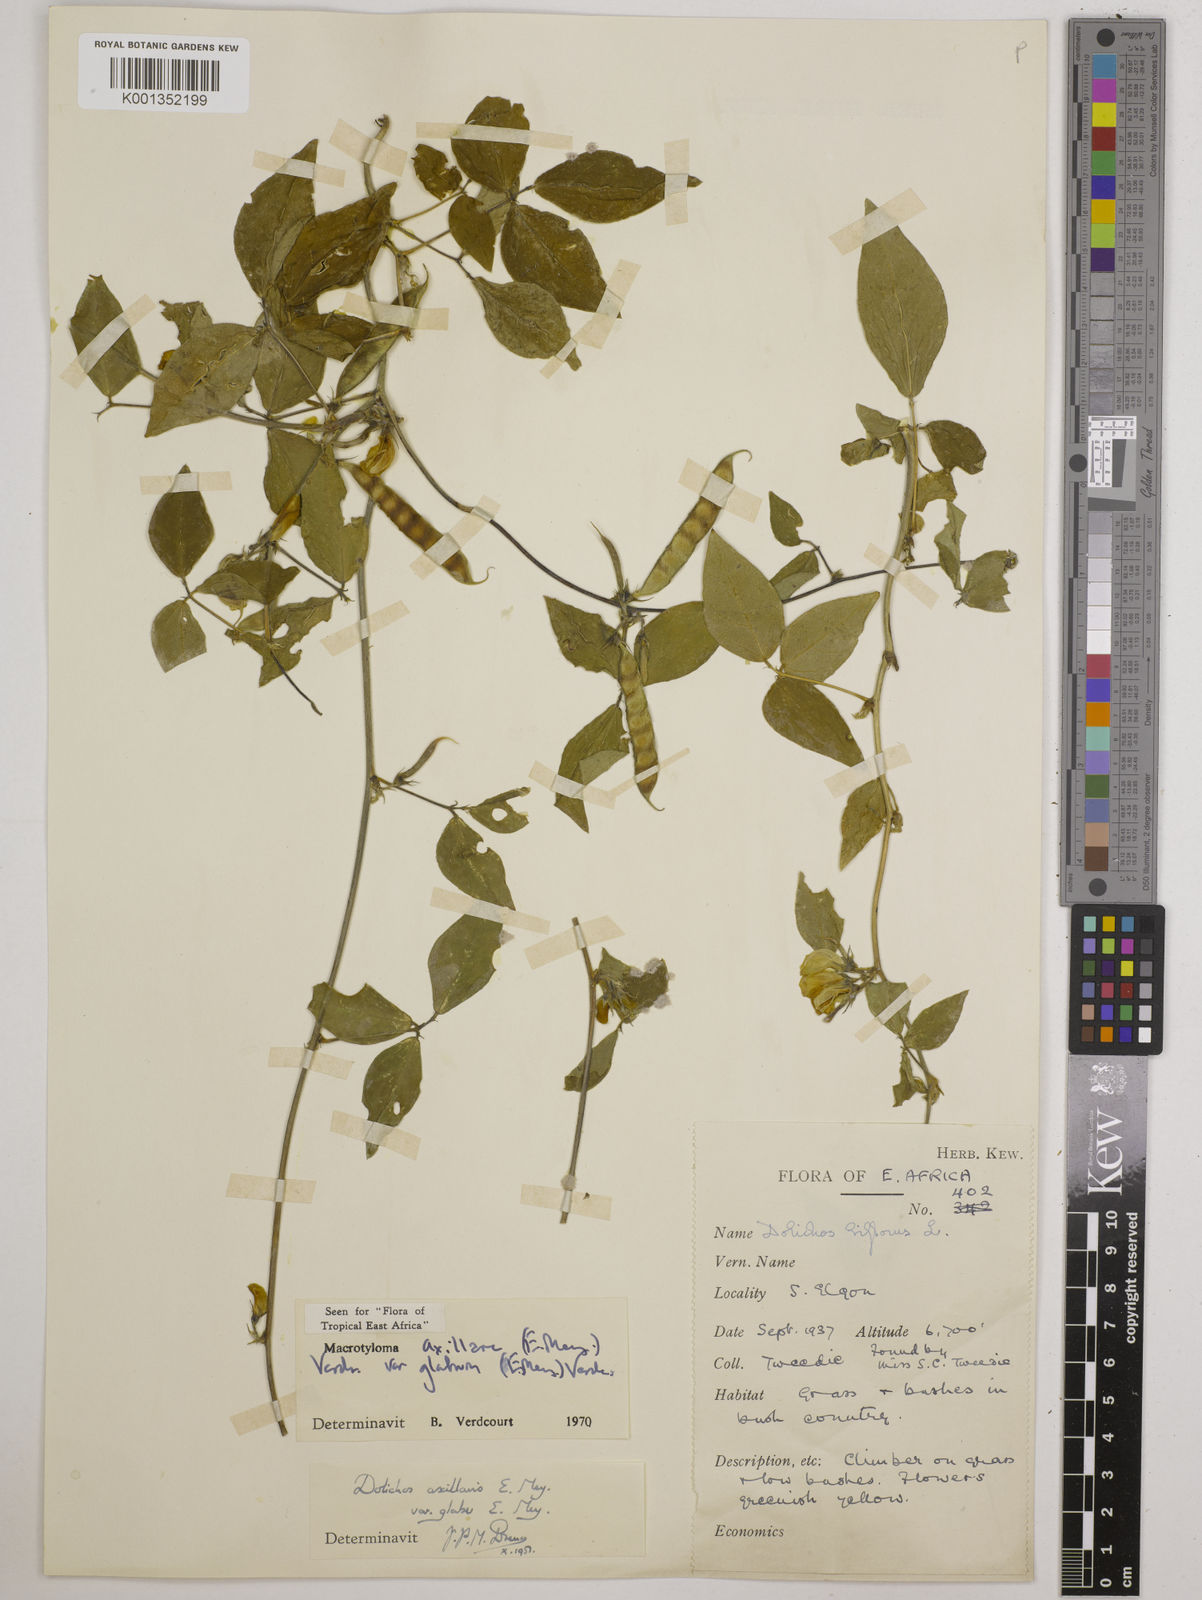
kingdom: Plantae
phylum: Tracheophyta
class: Magnoliopsida
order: Fabales
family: Fabaceae
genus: Macrotyloma
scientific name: Macrotyloma
